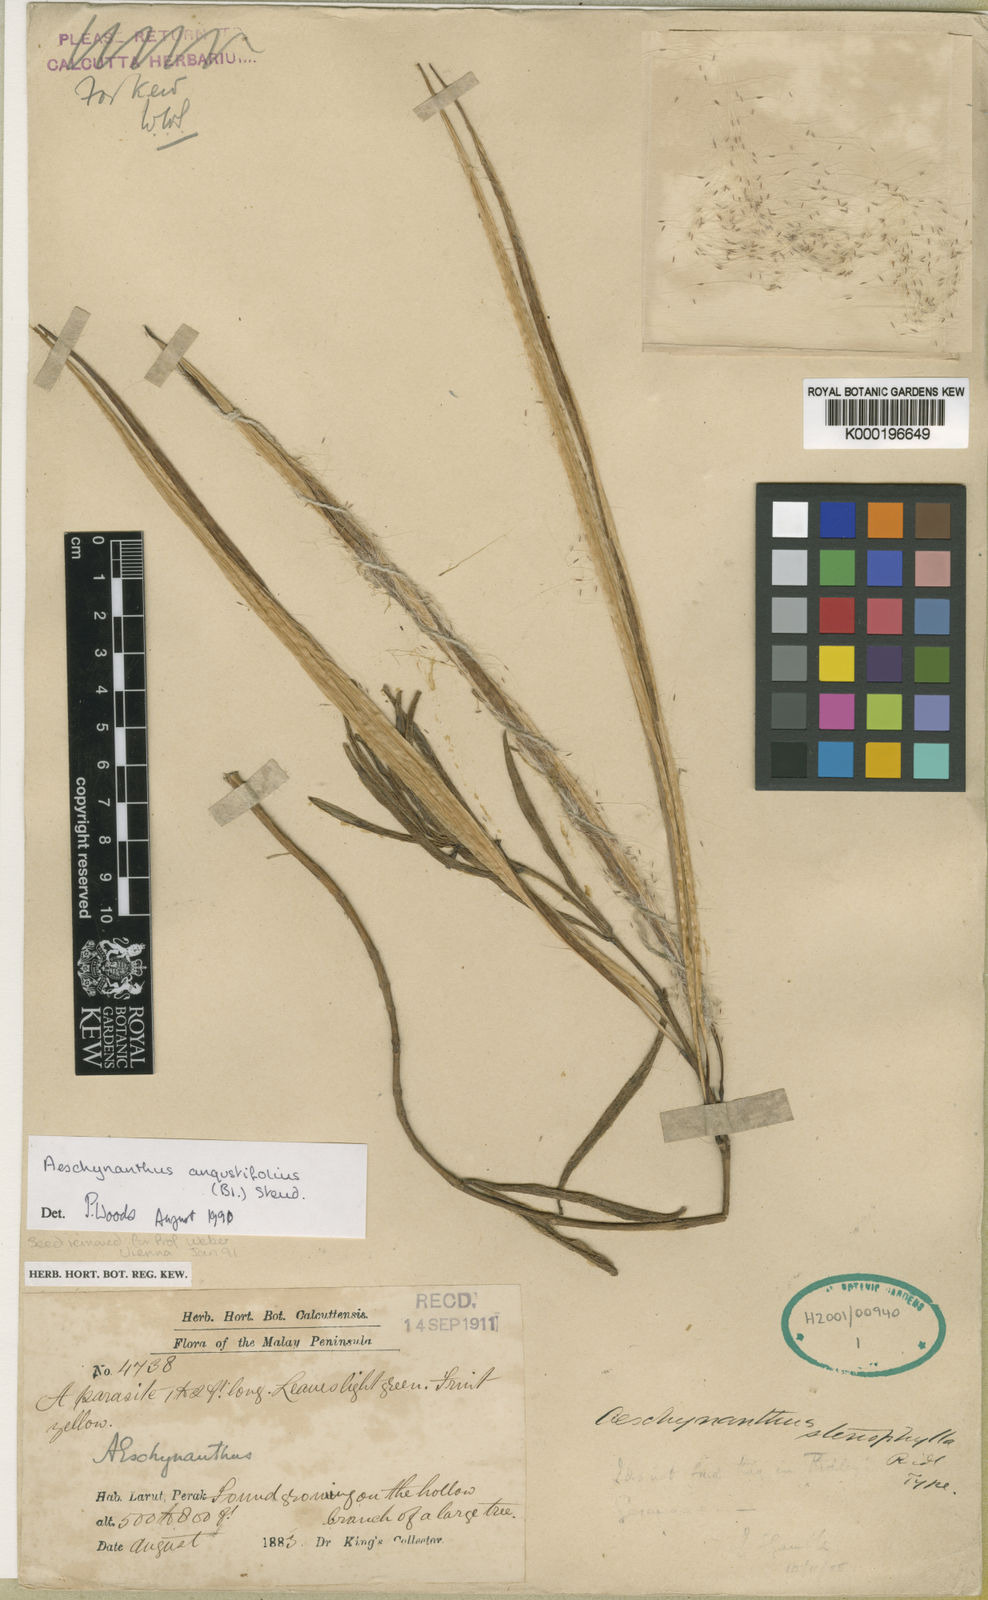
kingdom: Plantae
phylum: Tracheophyta
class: Magnoliopsida
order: Lamiales
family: Gesneriaceae
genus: Aeschynanthus
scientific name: Aeschynanthus angustifolius
